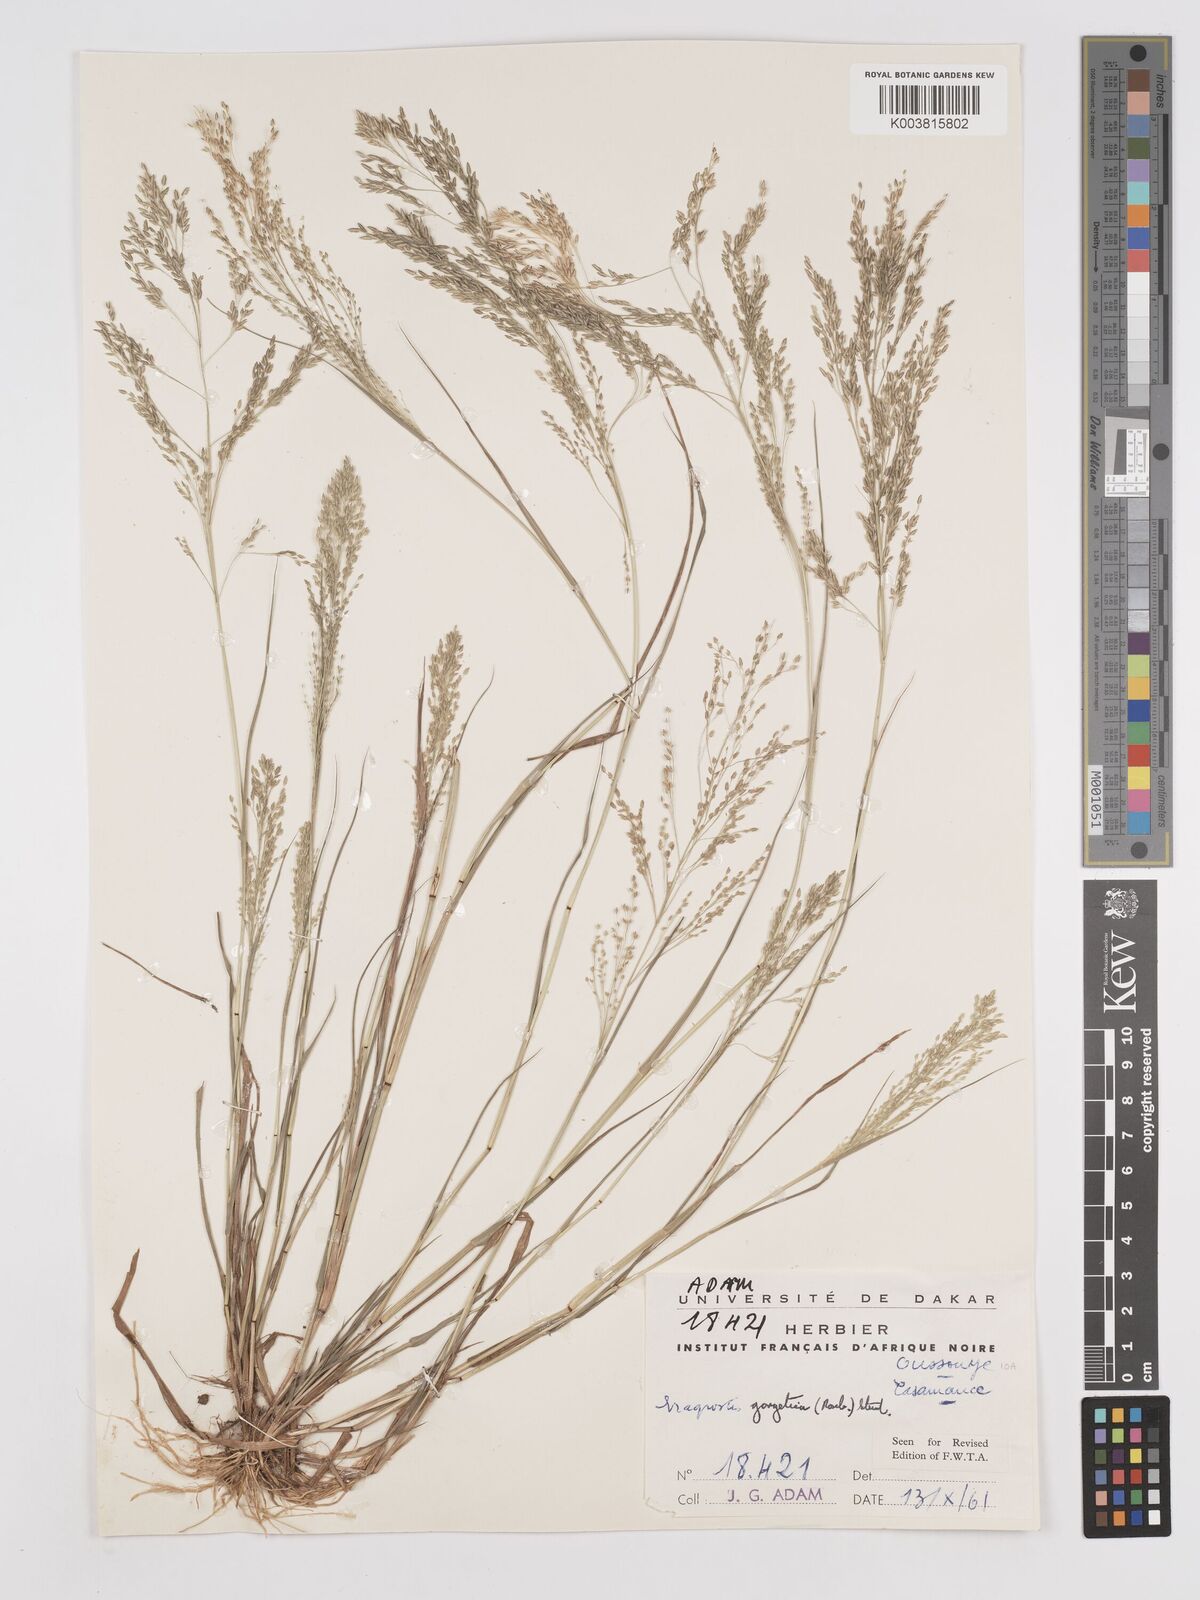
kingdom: Plantae
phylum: Tracheophyta
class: Liliopsida
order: Poales
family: Poaceae
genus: Eragrostis
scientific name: Eragrostis gangetica
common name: Slimflower lovegrass
